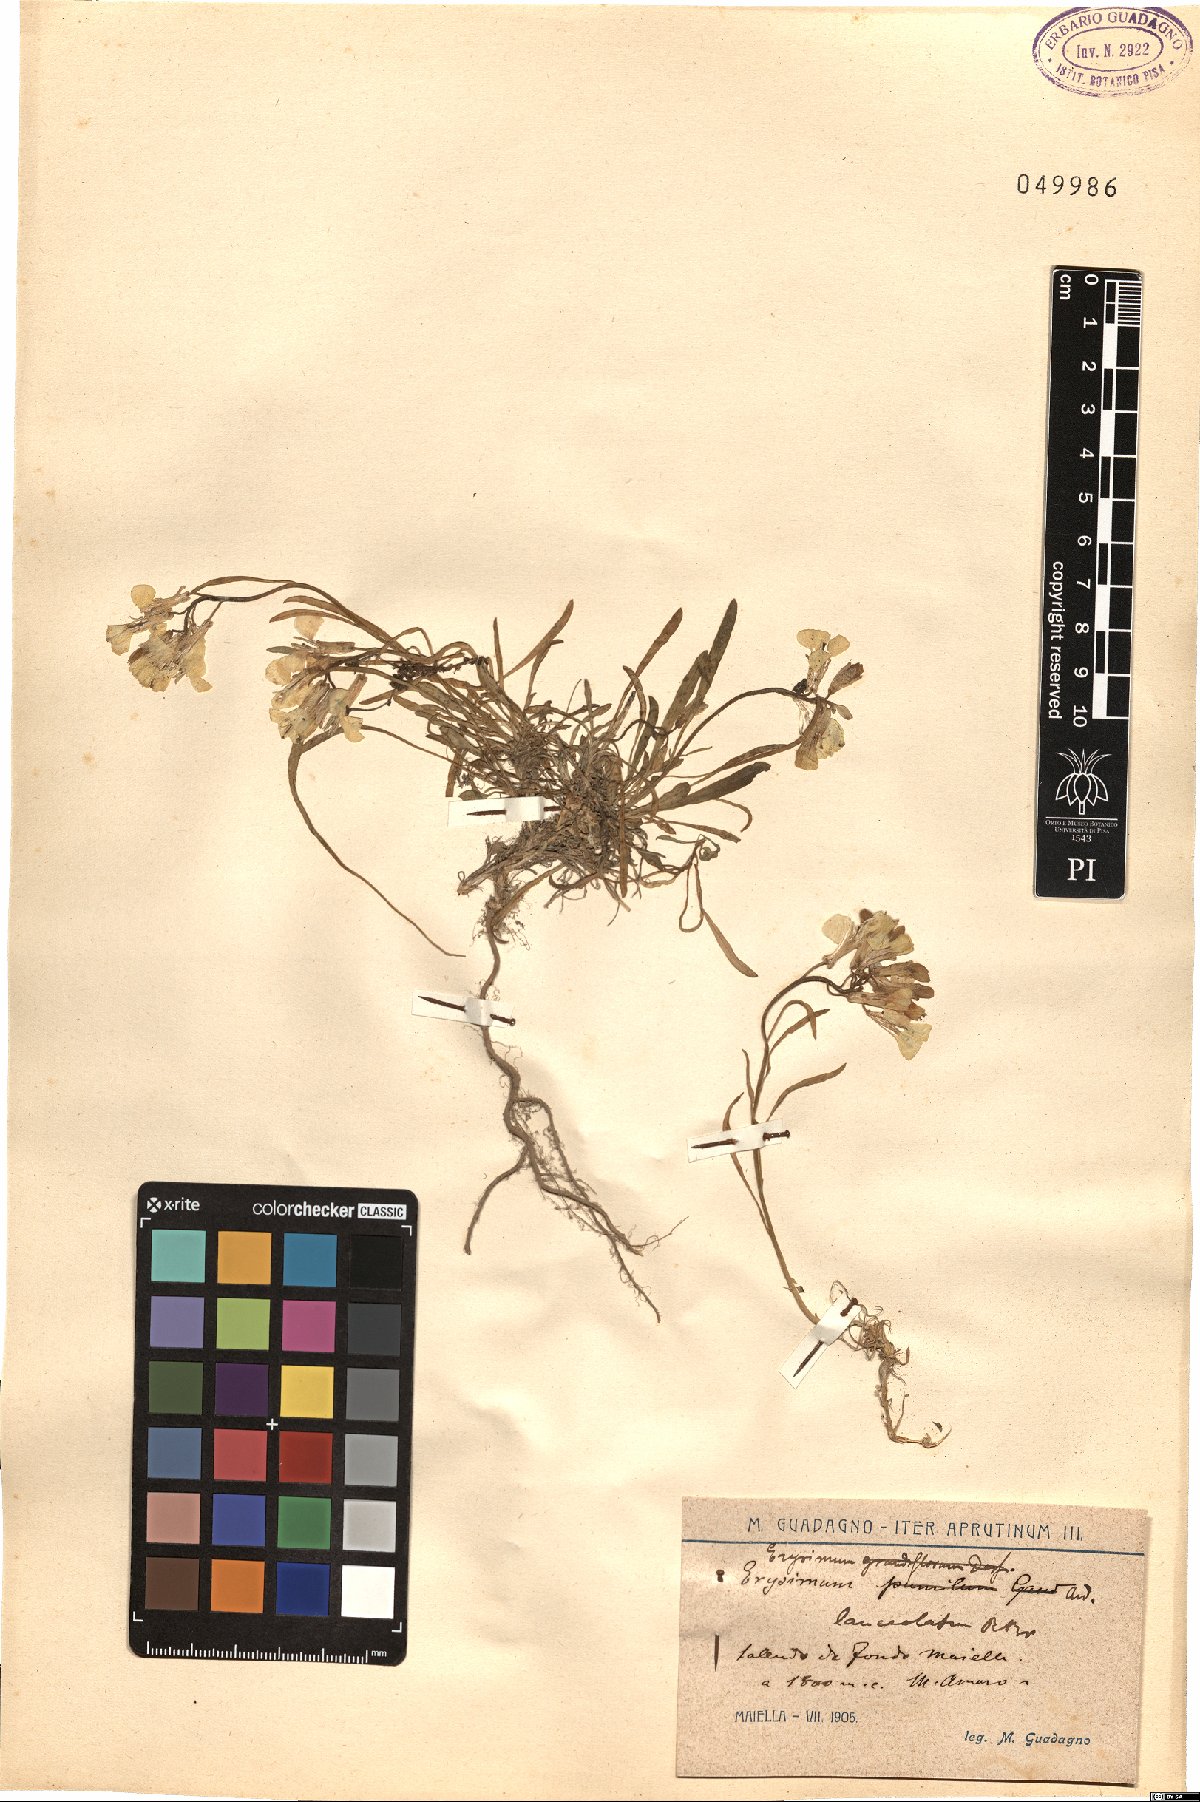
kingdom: Plantae
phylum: Tracheophyta
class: Magnoliopsida
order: Brassicales
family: Brassicaceae
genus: Erysimum
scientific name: Erysimum nevadense
